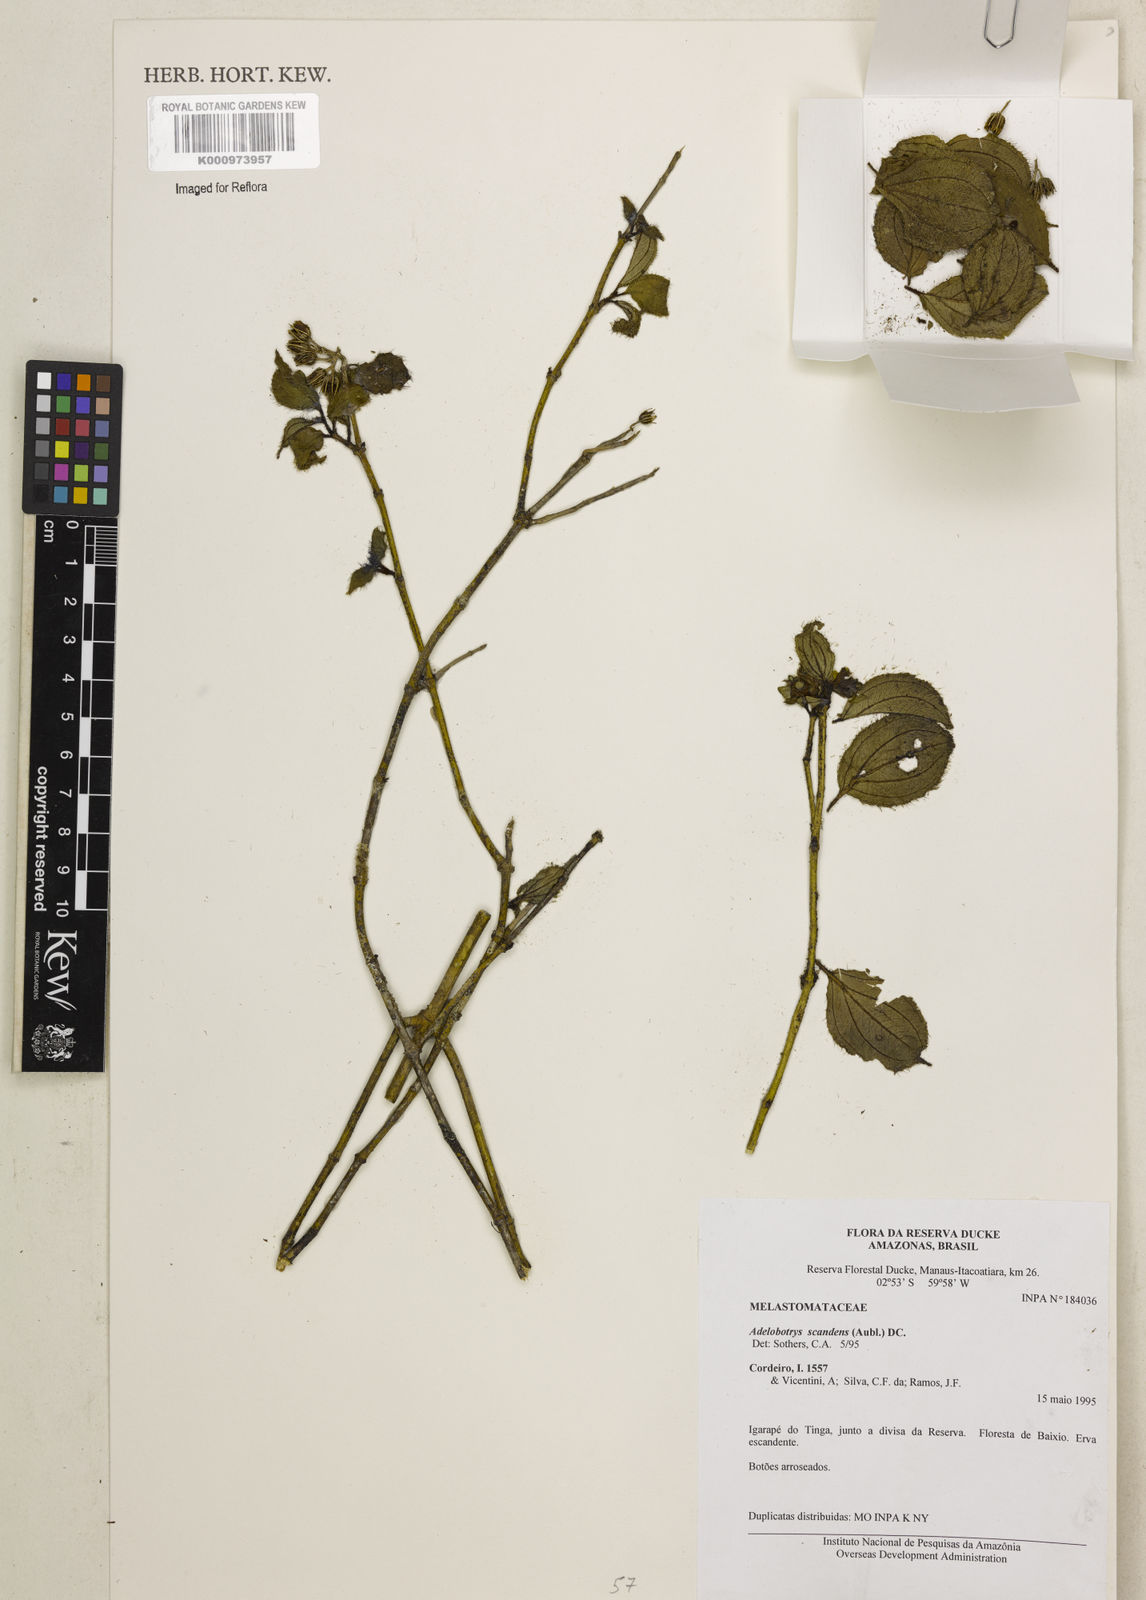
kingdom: Plantae
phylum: Tracheophyta
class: Magnoliopsida
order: Myrtales
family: Melastomataceae
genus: Adelobotrys
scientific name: Adelobotrys scandens
